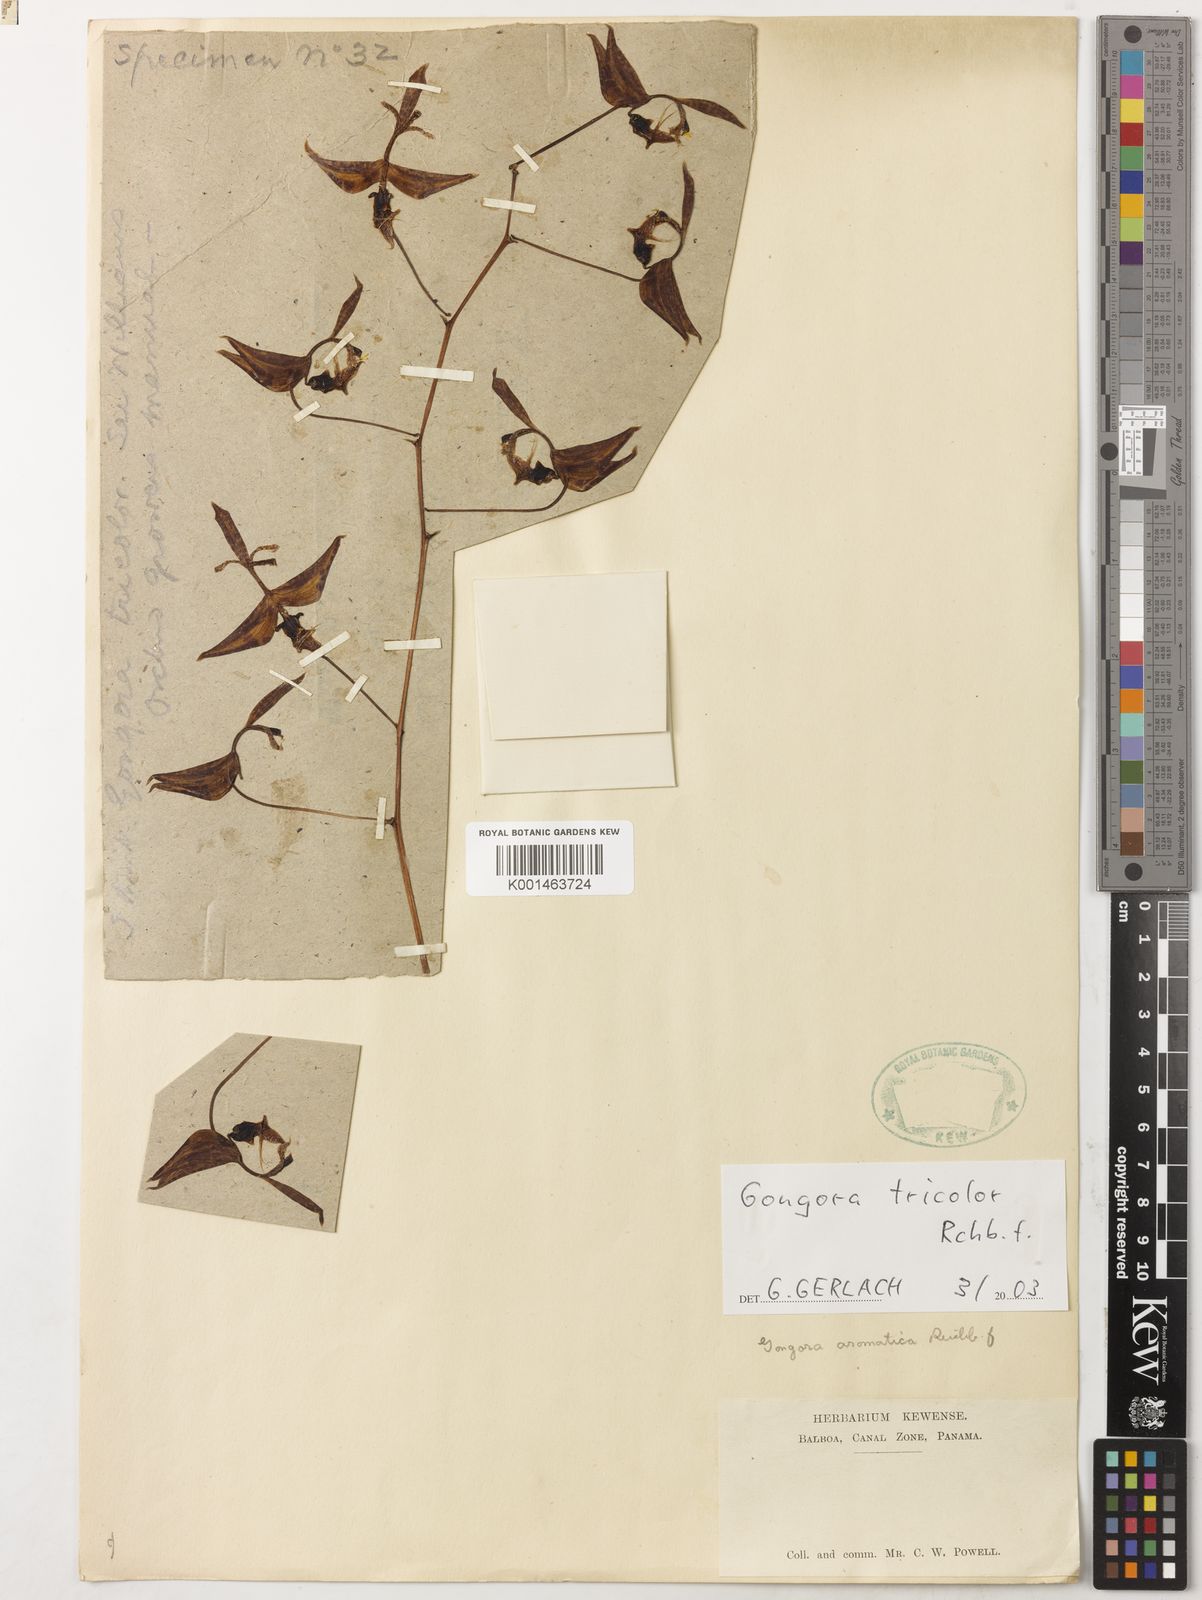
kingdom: Plantae
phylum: Tracheophyta
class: Liliopsida
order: Asparagales
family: Orchidaceae
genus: Gongora
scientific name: Gongora fulva
